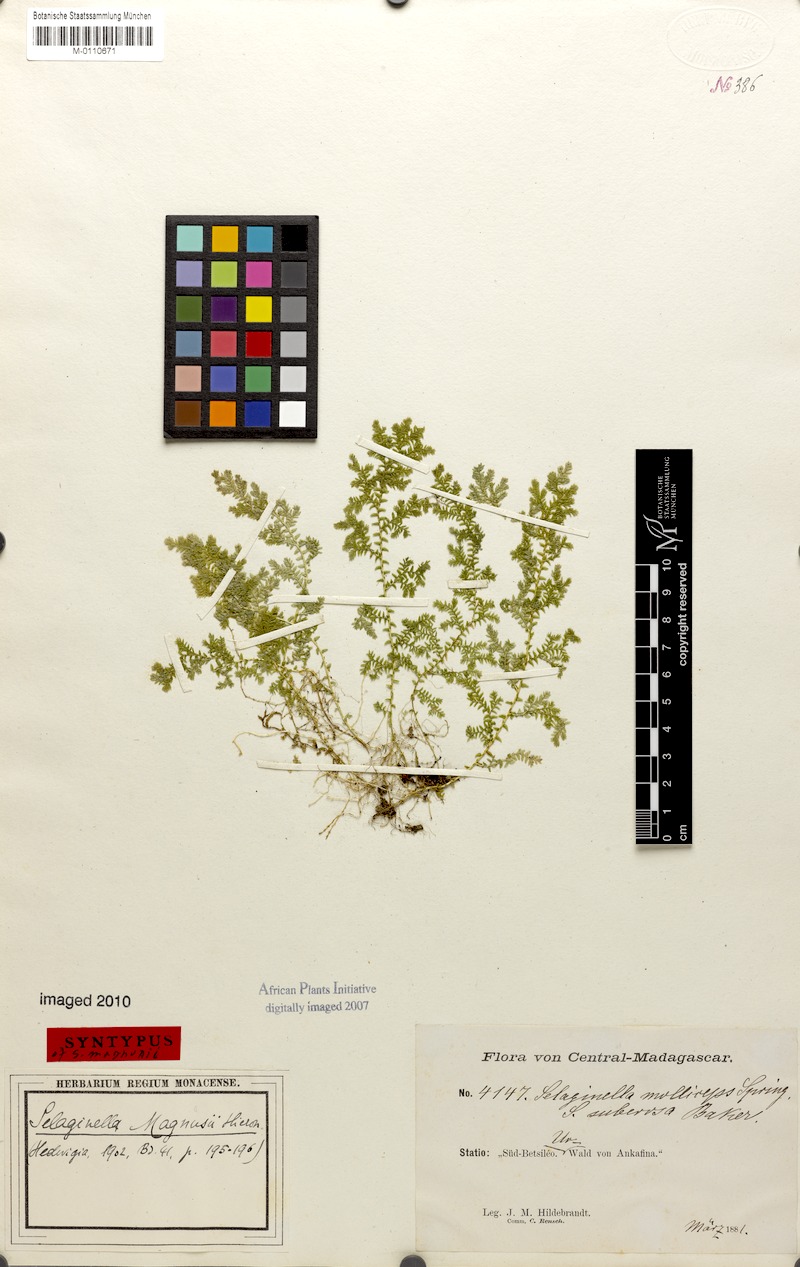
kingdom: Plantae
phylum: Tracheophyta
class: Lycopodiopsida
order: Selaginellales
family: Selaginellaceae
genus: Selaginella
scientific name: Selaginella goudotiana
